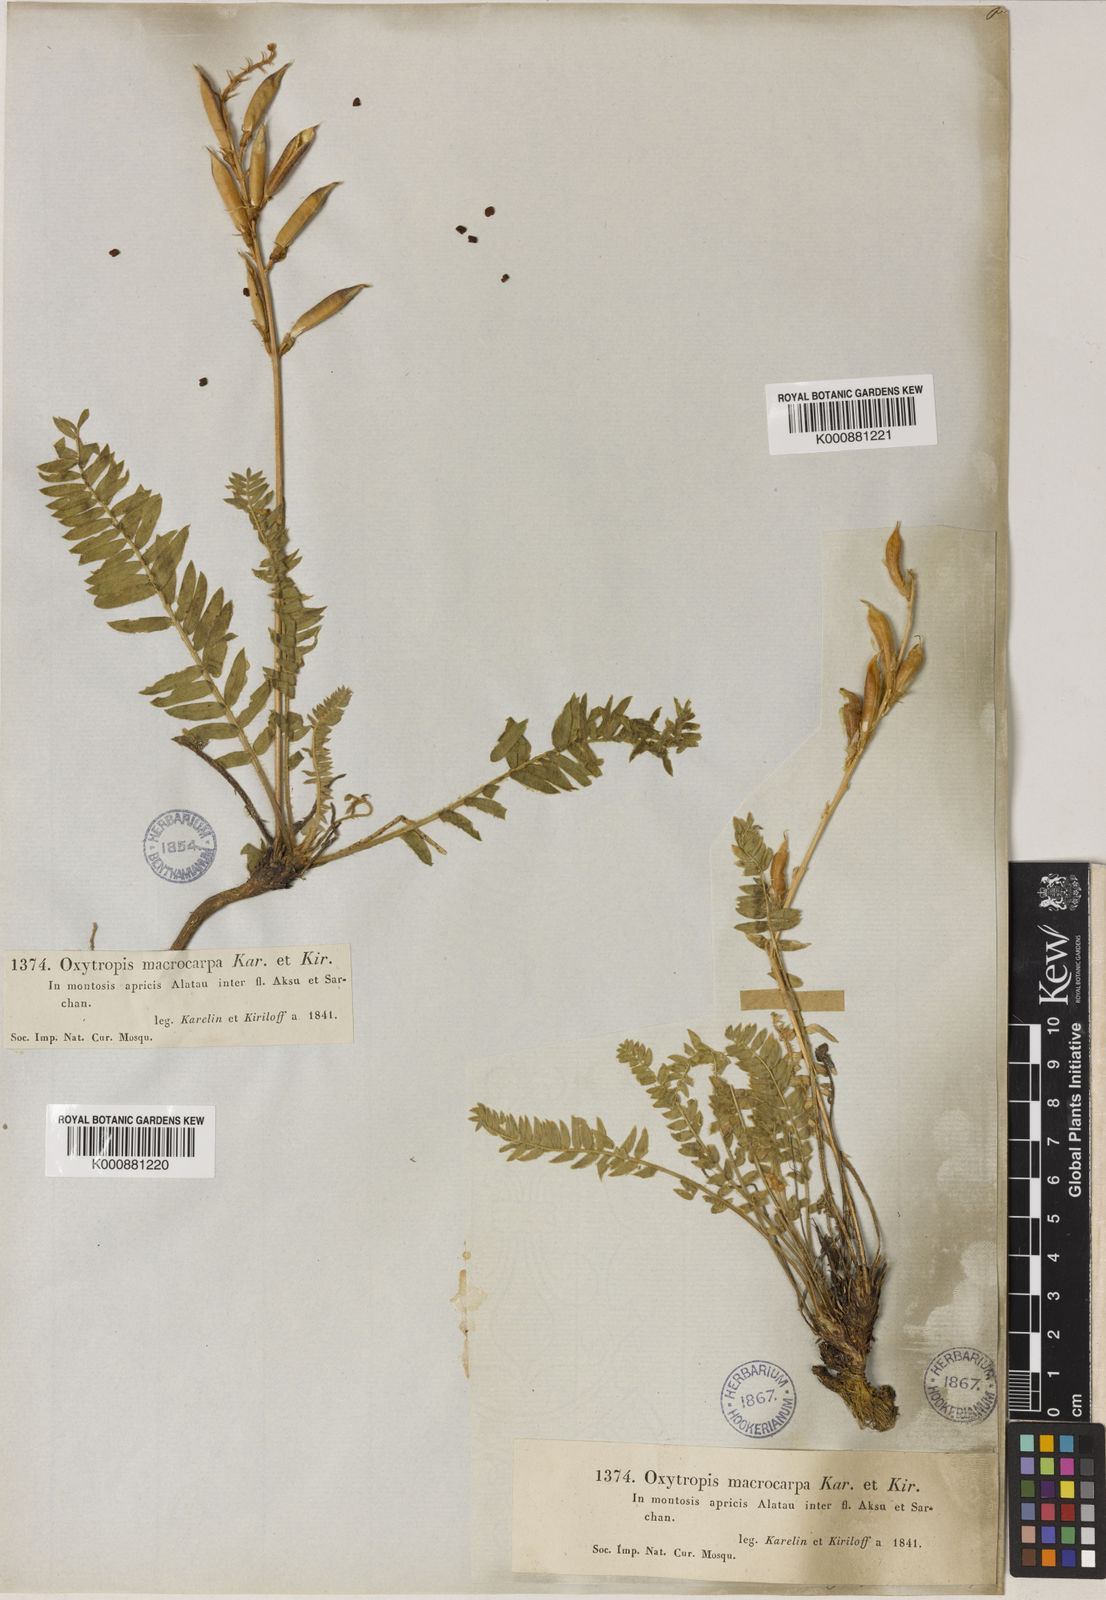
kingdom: Plantae
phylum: Tracheophyta
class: Magnoliopsida
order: Fabales
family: Fabaceae
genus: Oxytropis
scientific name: Oxytropis macrocarpa
